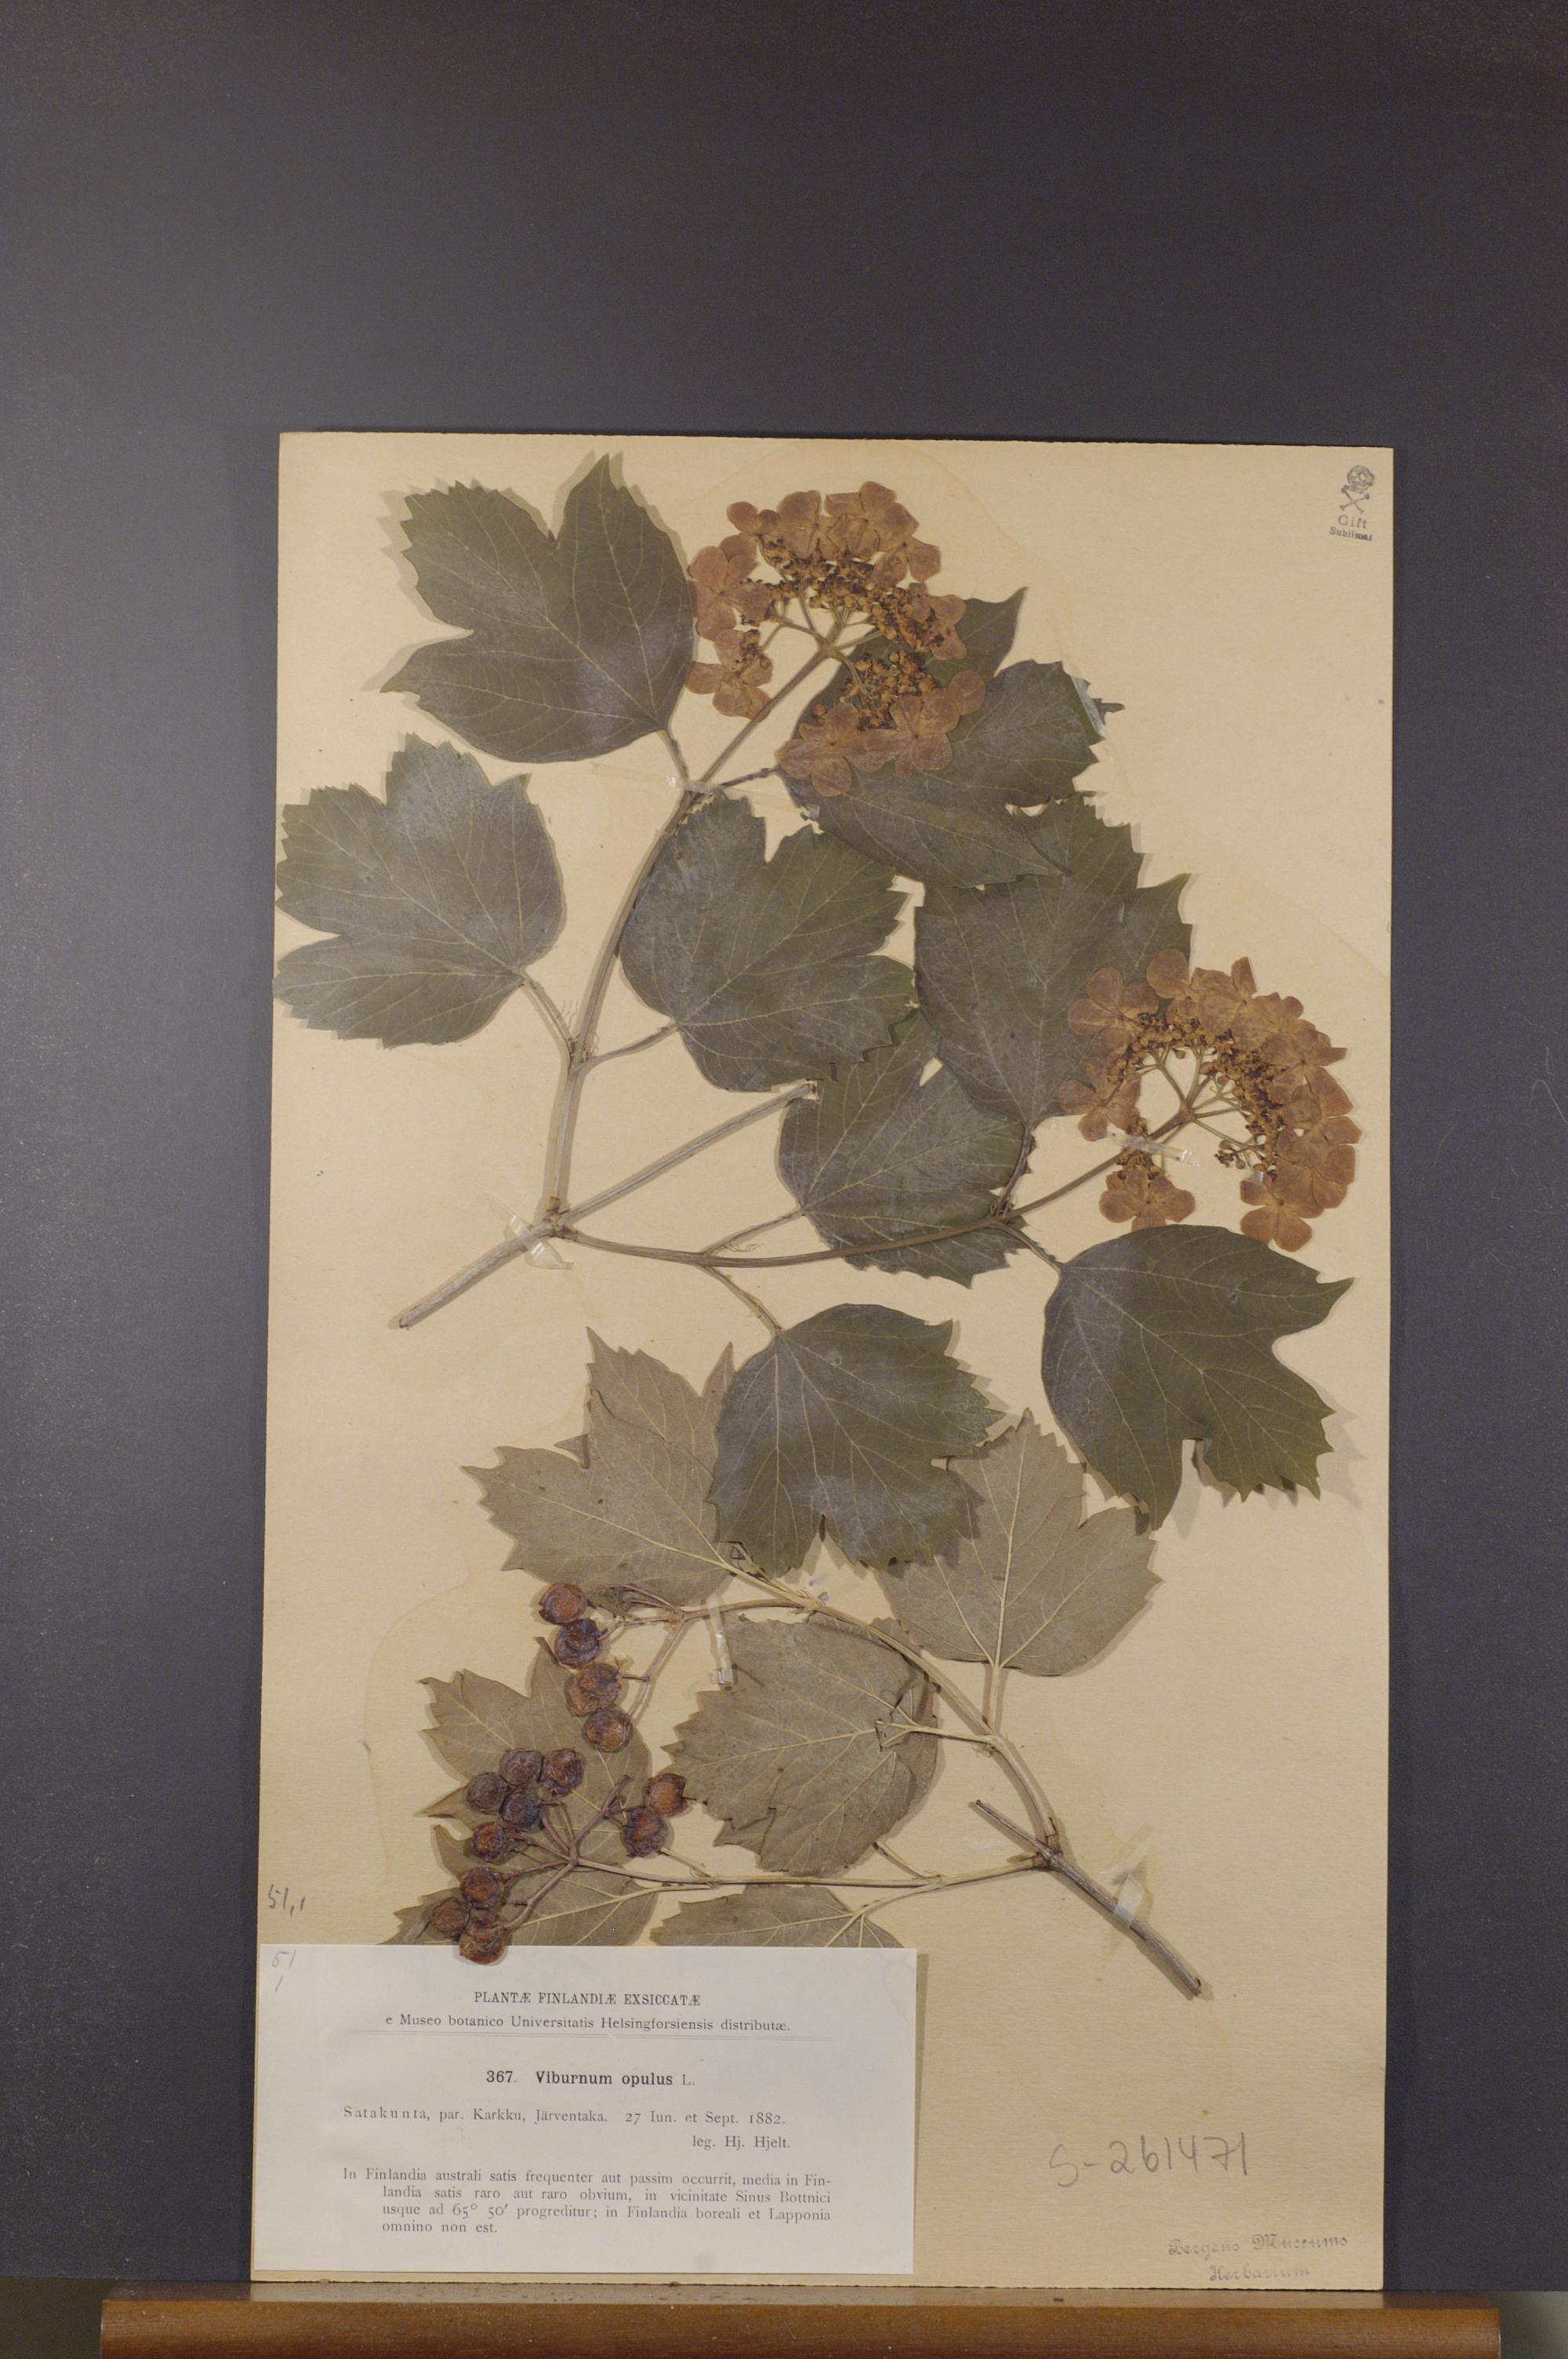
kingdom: Plantae
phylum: Tracheophyta
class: Magnoliopsida
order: Dipsacales
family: Viburnaceae
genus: Viburnum
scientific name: Viburnum opulus
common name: Guelder-rose
